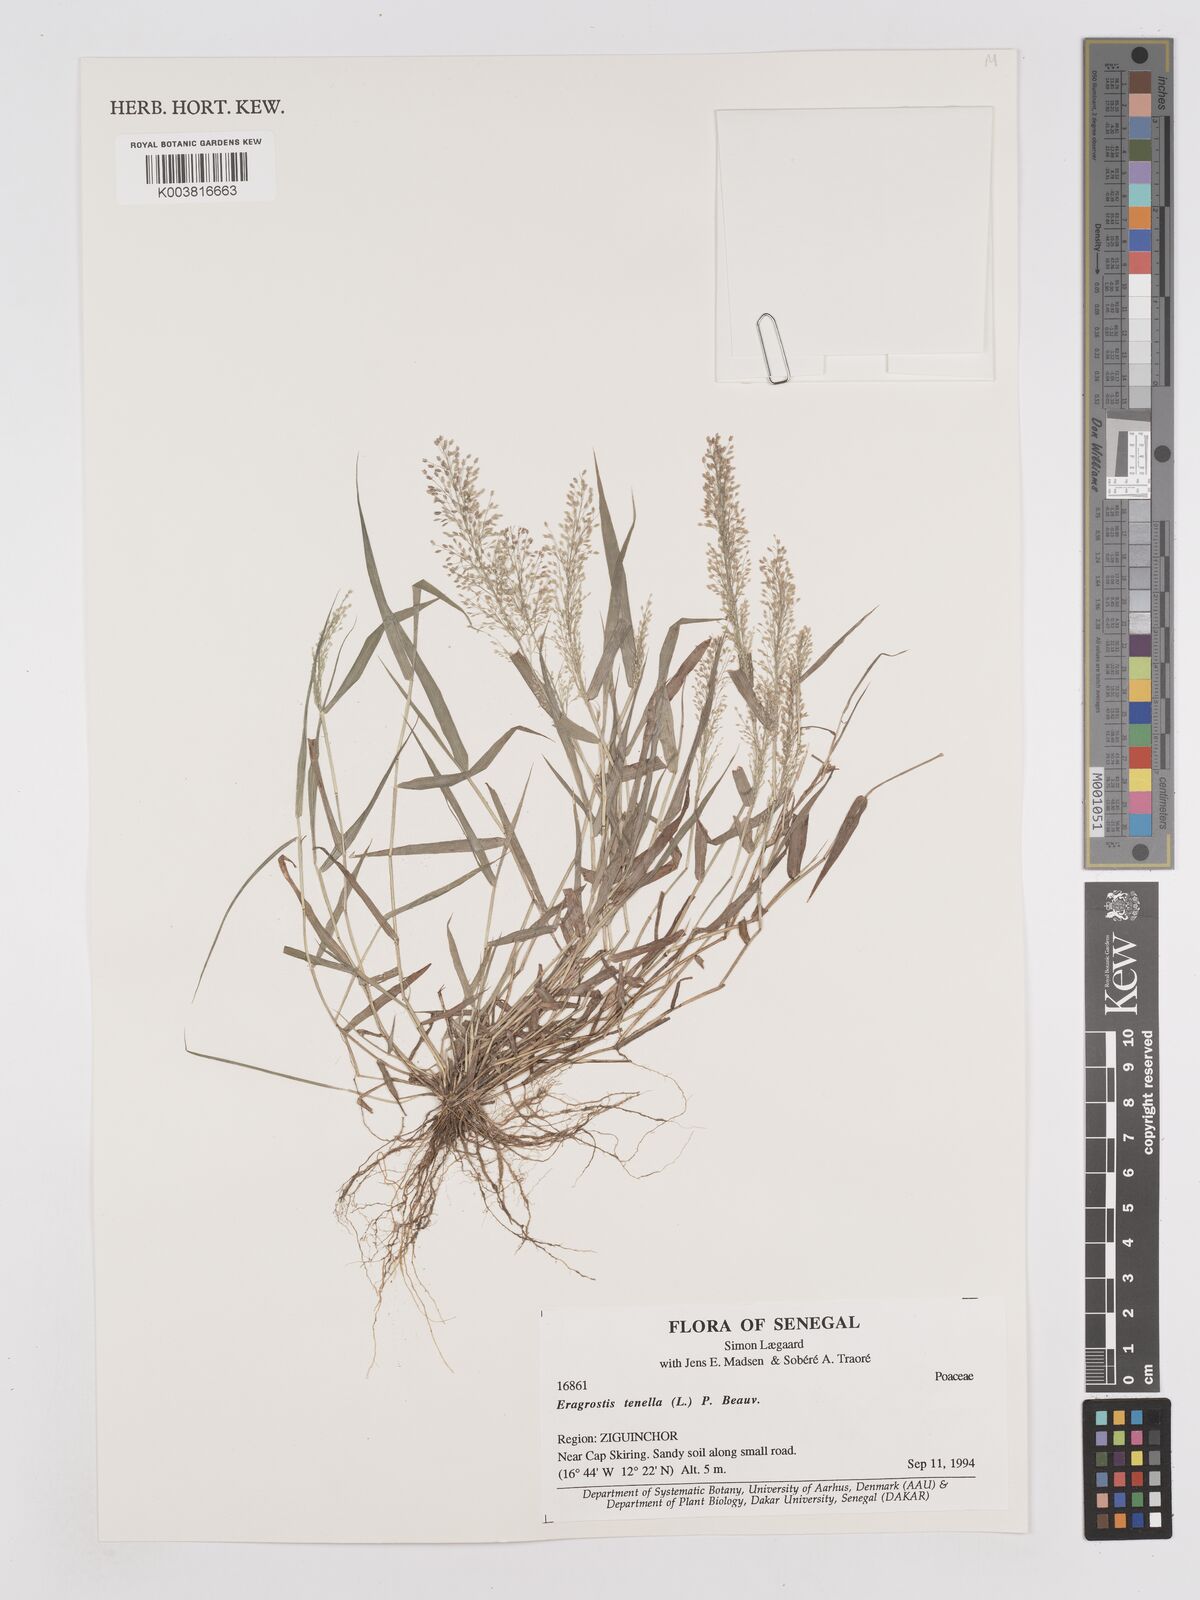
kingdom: Plantae
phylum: Tracheophyta
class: Liliopsida
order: Poales
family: Poaceae
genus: Eragrostis
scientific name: Eragrostis tenella
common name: Japanese lovegrass
